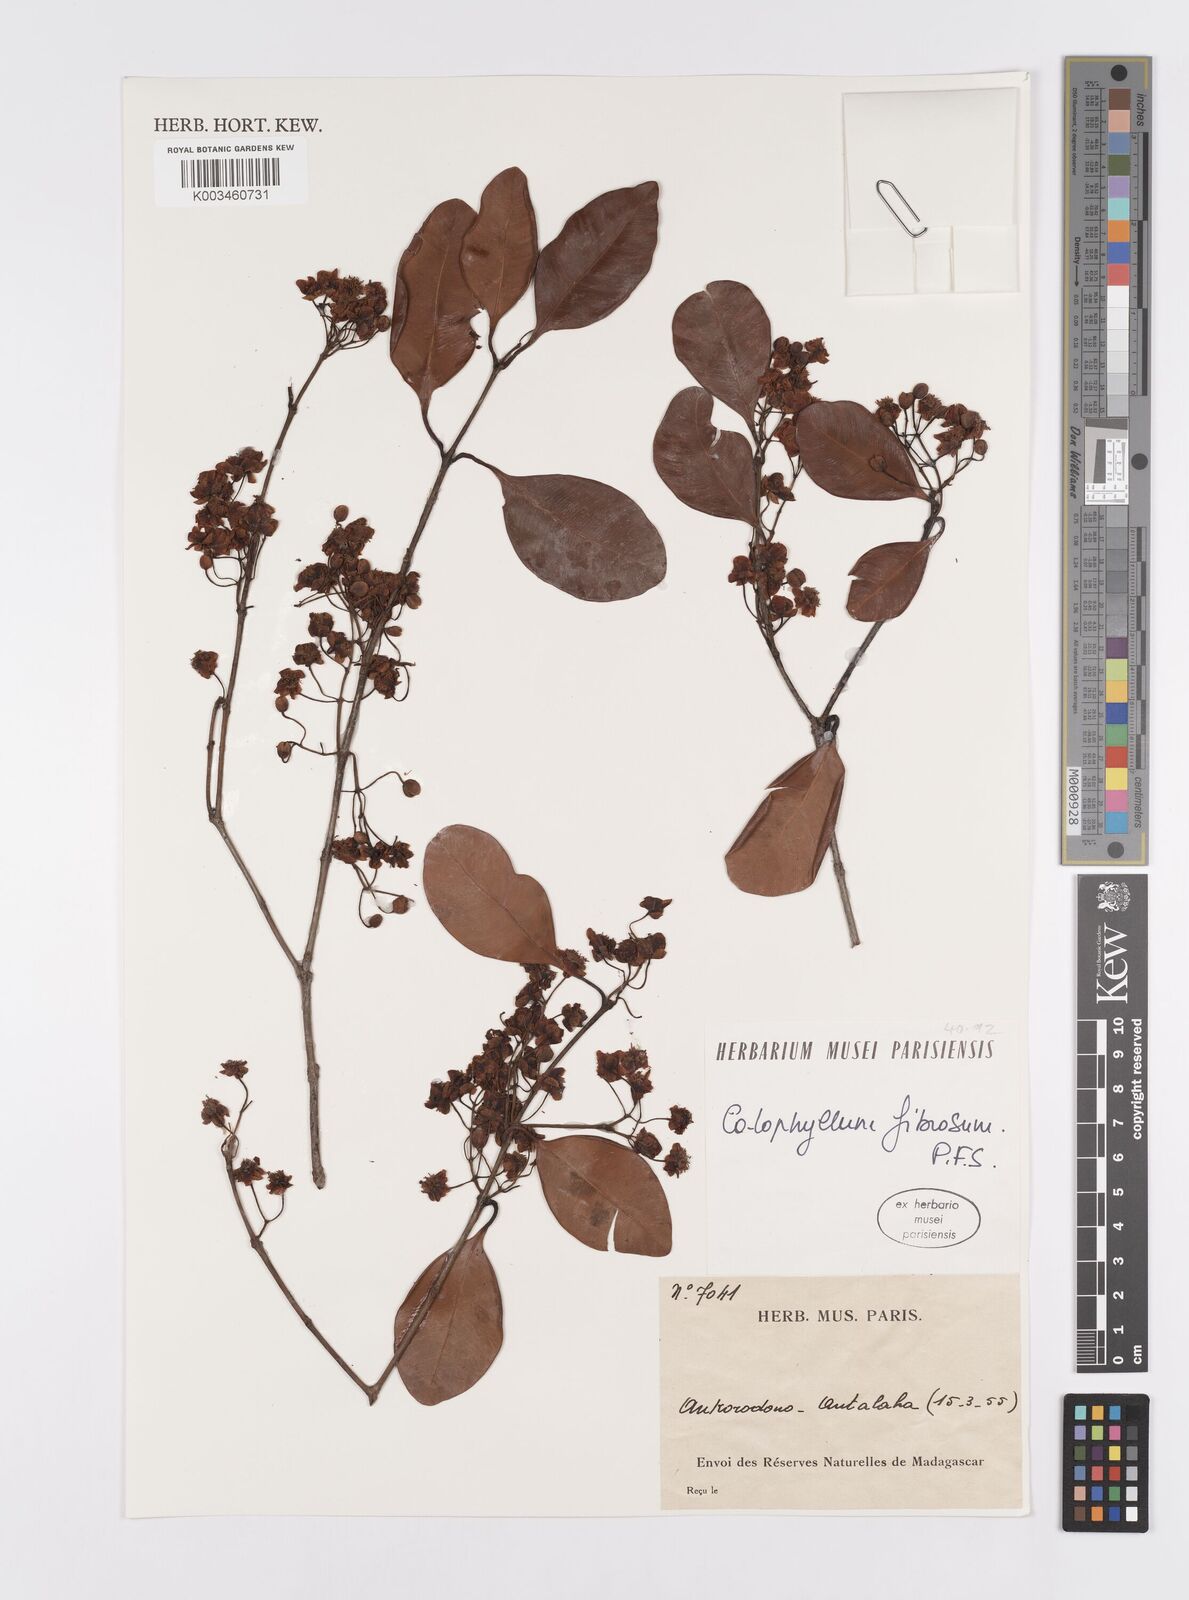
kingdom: Plantae
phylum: Tracheophyta
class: Magnoliopsida
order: Malpighiales
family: Calophyllaceae
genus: Calophyllum
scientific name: Calophyllum fibrosum
